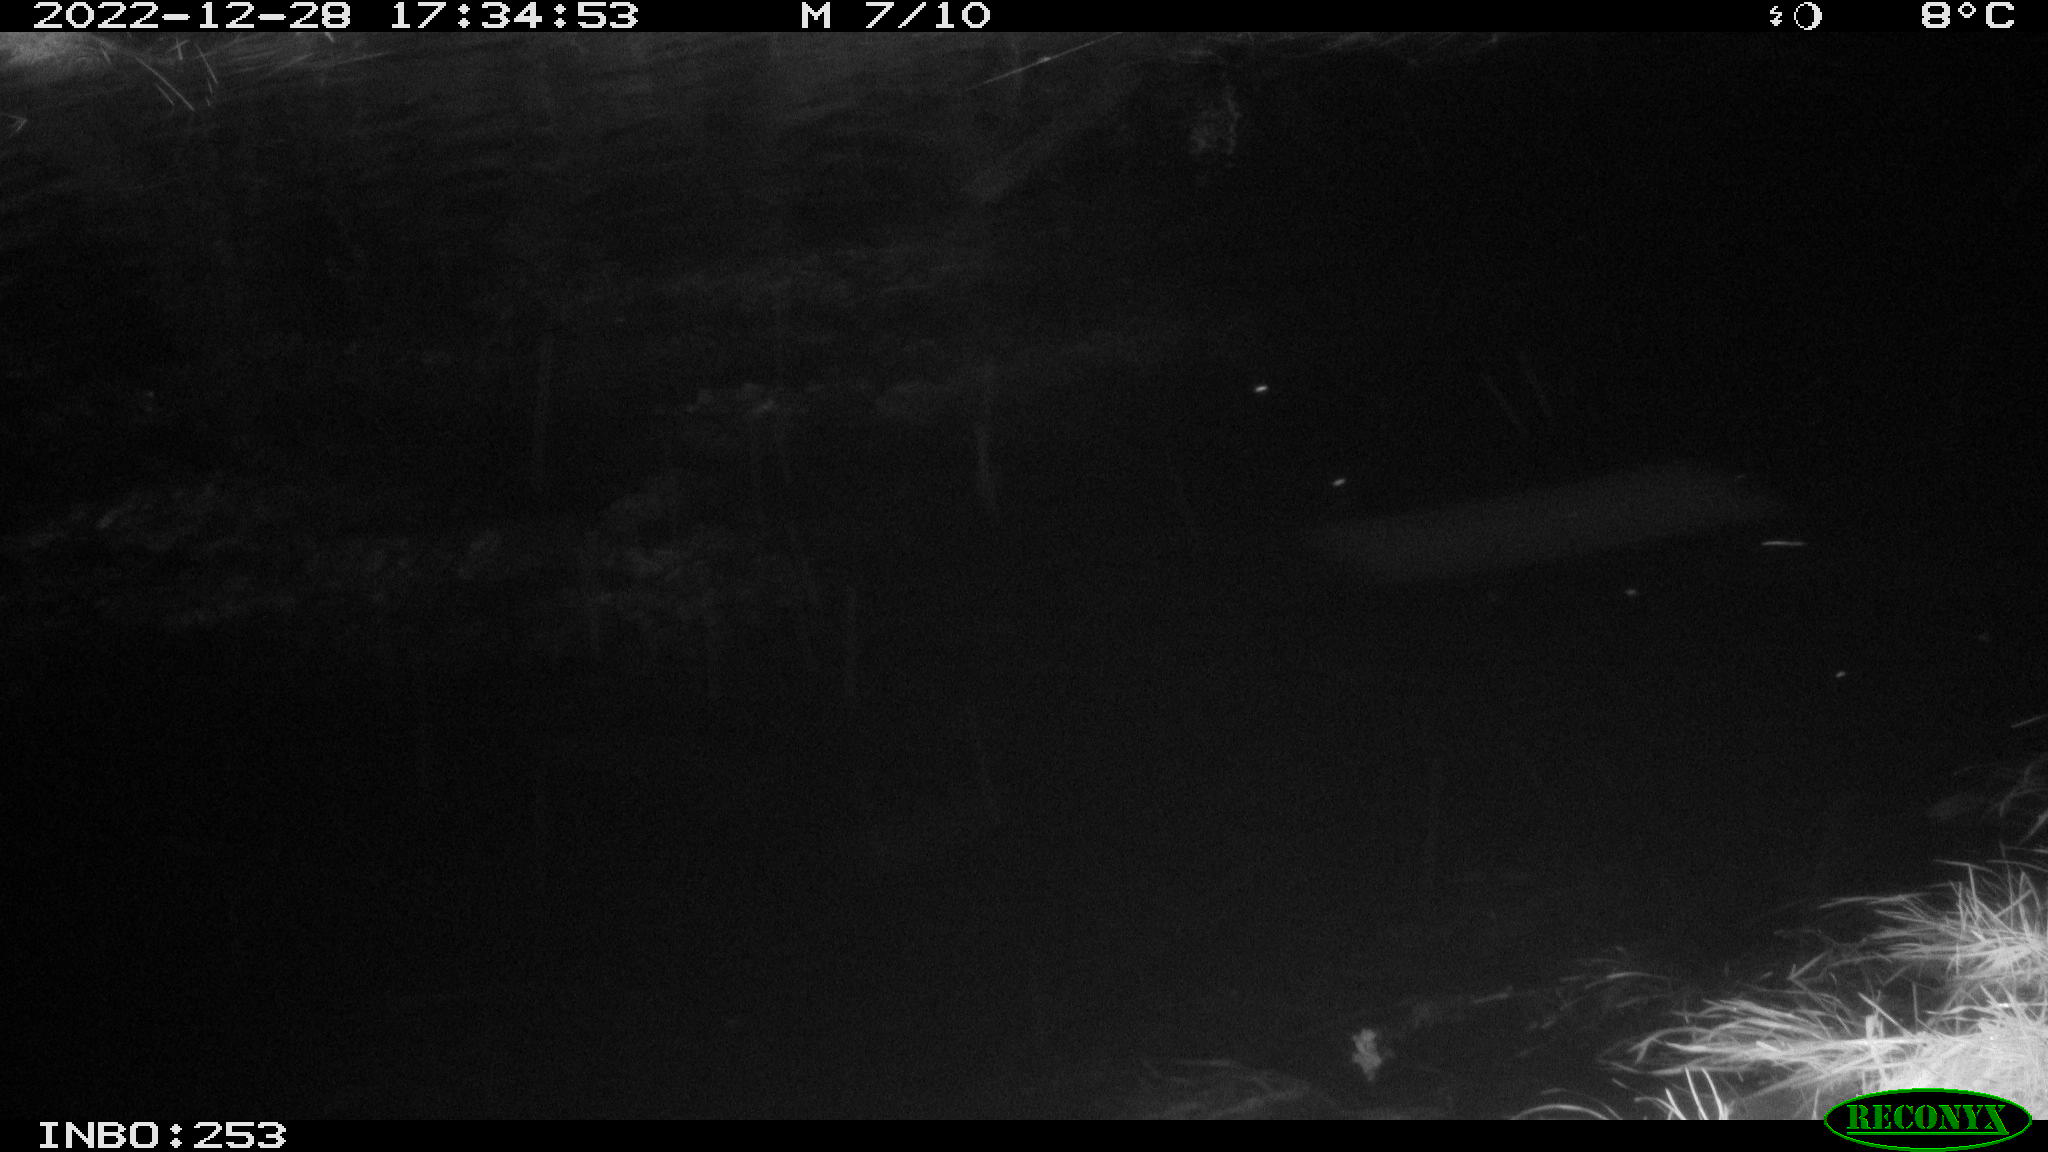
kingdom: Animalia
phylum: Chordata
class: Mammalia
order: Rodentia
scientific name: Rodentia
